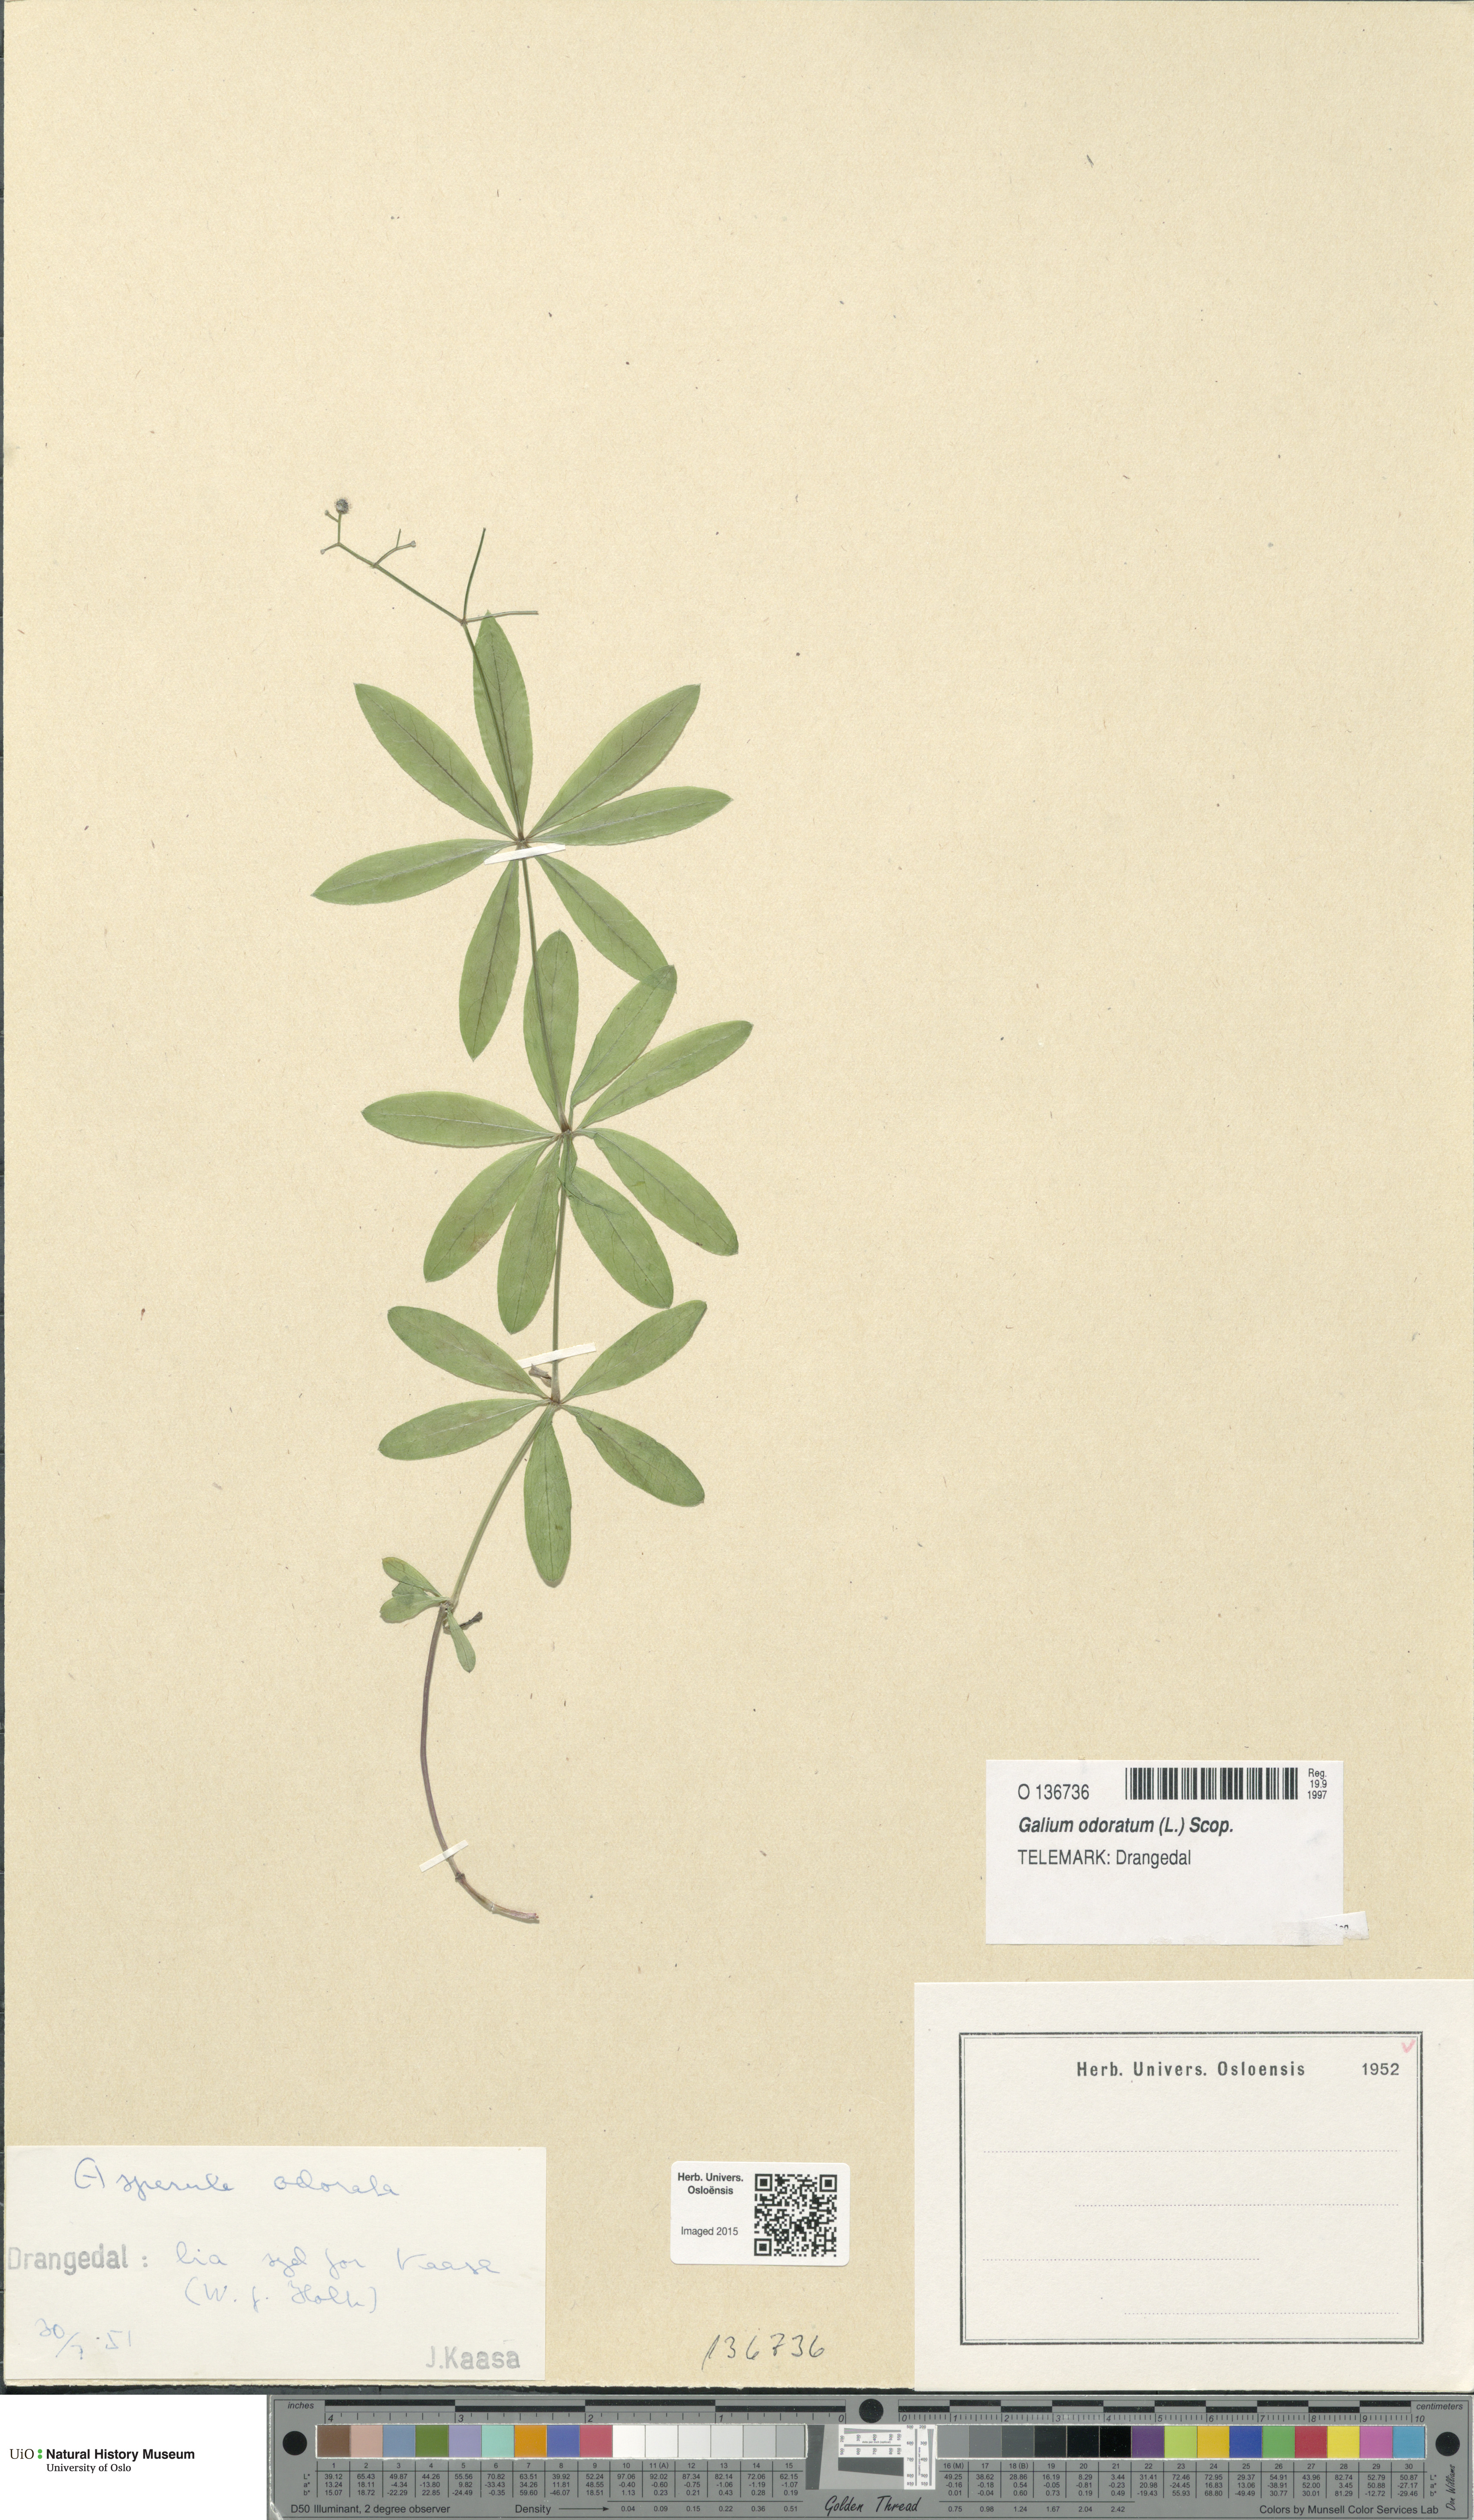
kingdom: Plantae
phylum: Tracheophyta
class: Magnoliopsida
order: Gentianales
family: Rubiaceae
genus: Galium
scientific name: Galium odoratum
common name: Sweet woodruff
